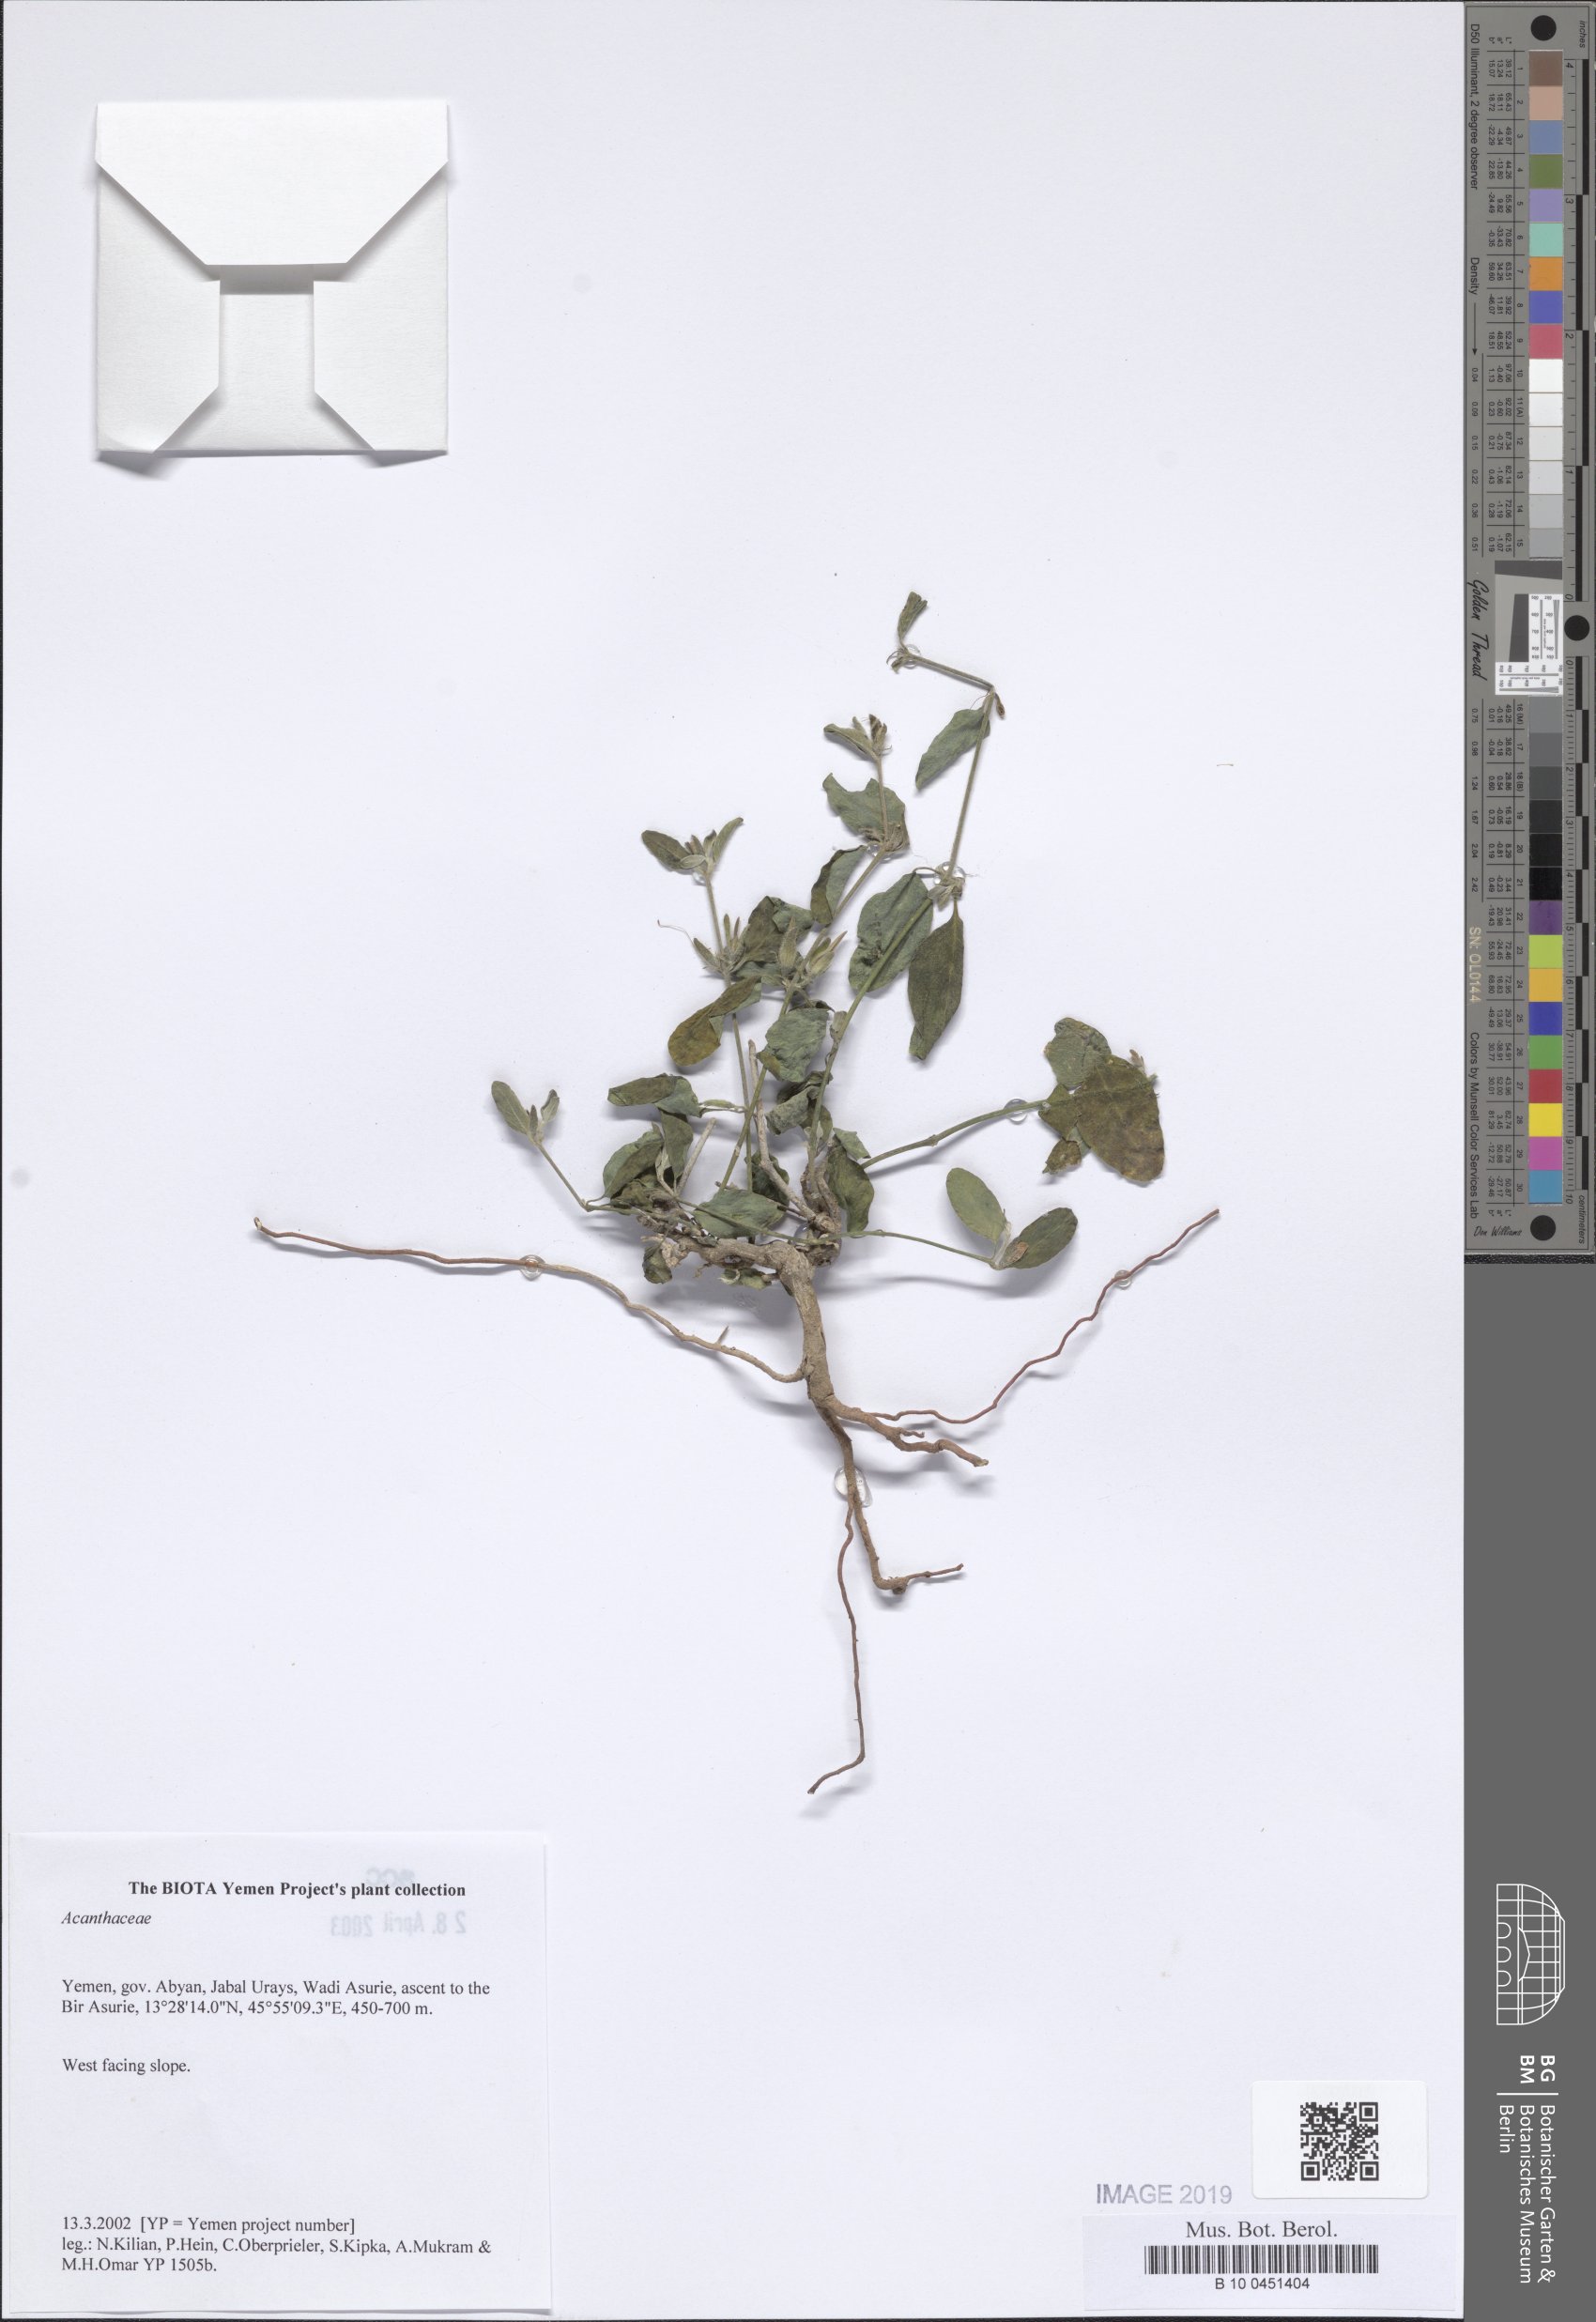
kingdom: Plantae
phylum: Tracheophyta
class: Magnoliopsida
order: Lamiales
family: Acanthaceae
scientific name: Acanthaceae
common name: Acanthaceae
